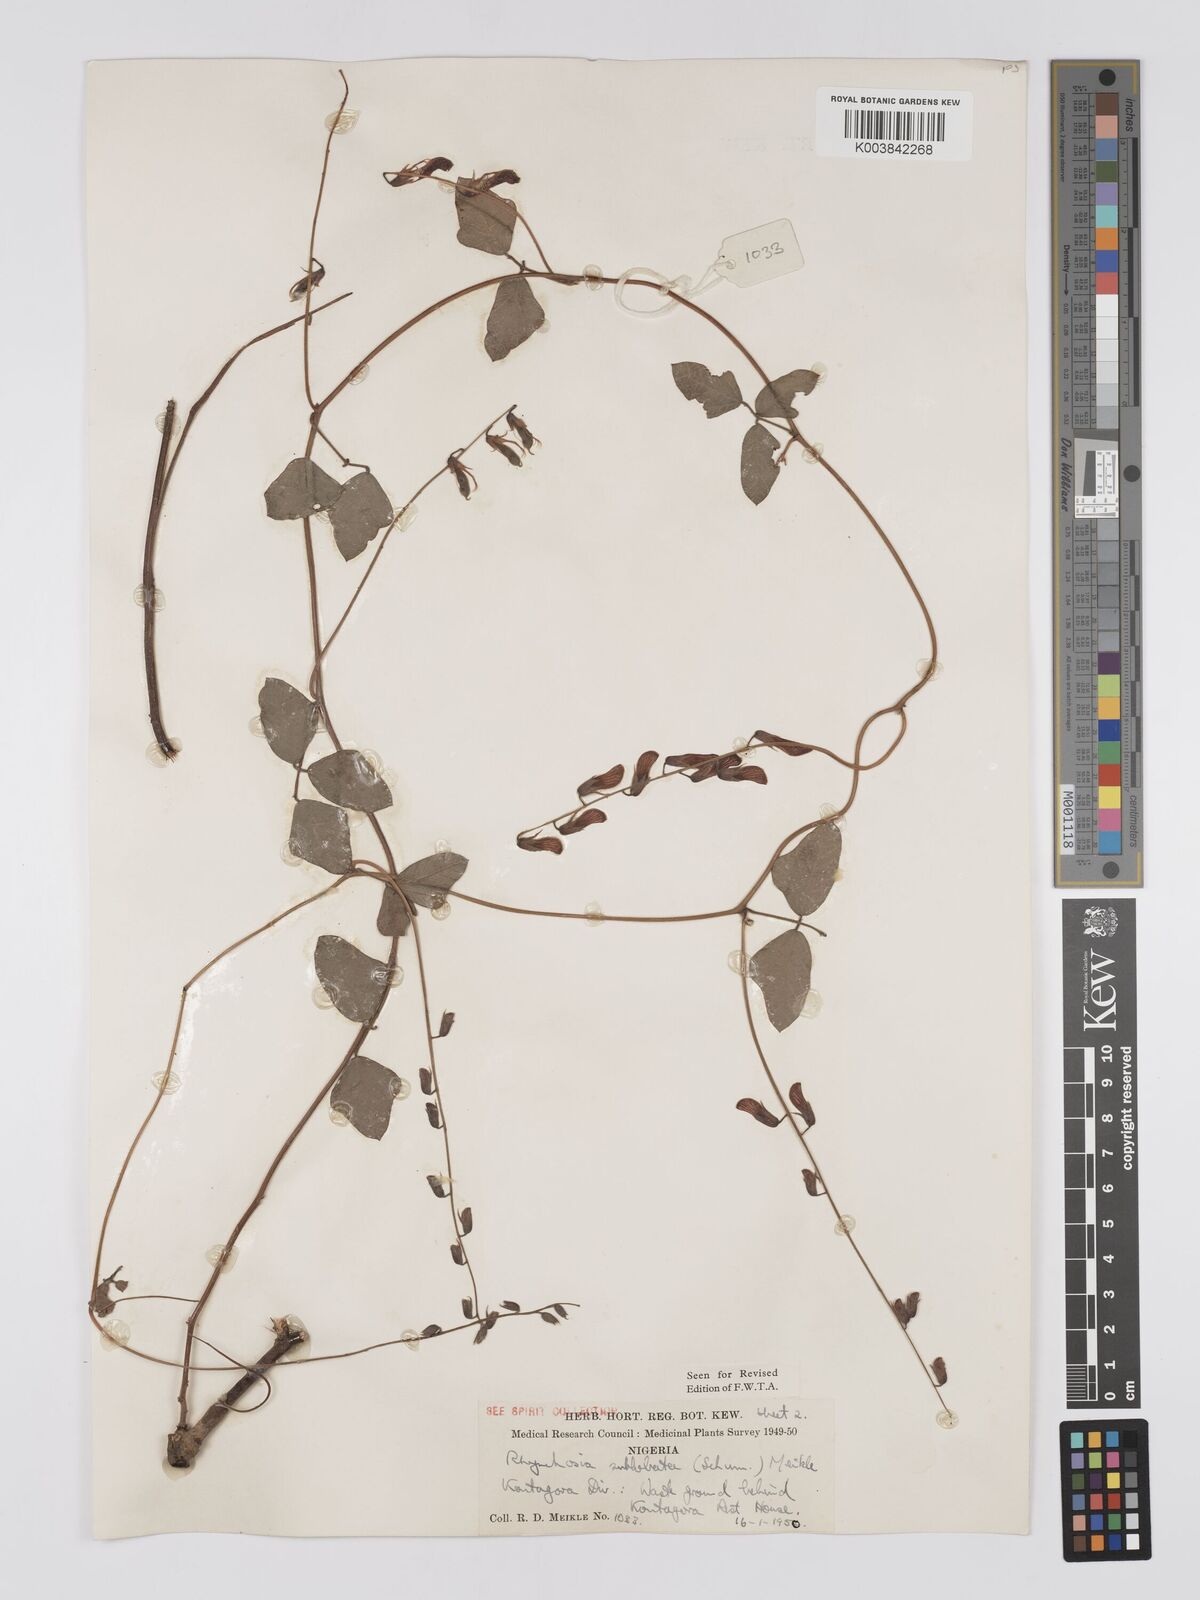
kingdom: Plantae
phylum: Tracheophyta
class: Magnoliopsida
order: Fabales
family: Fabaceae
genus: Rhynchosia
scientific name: Rhynchosia sublobata
